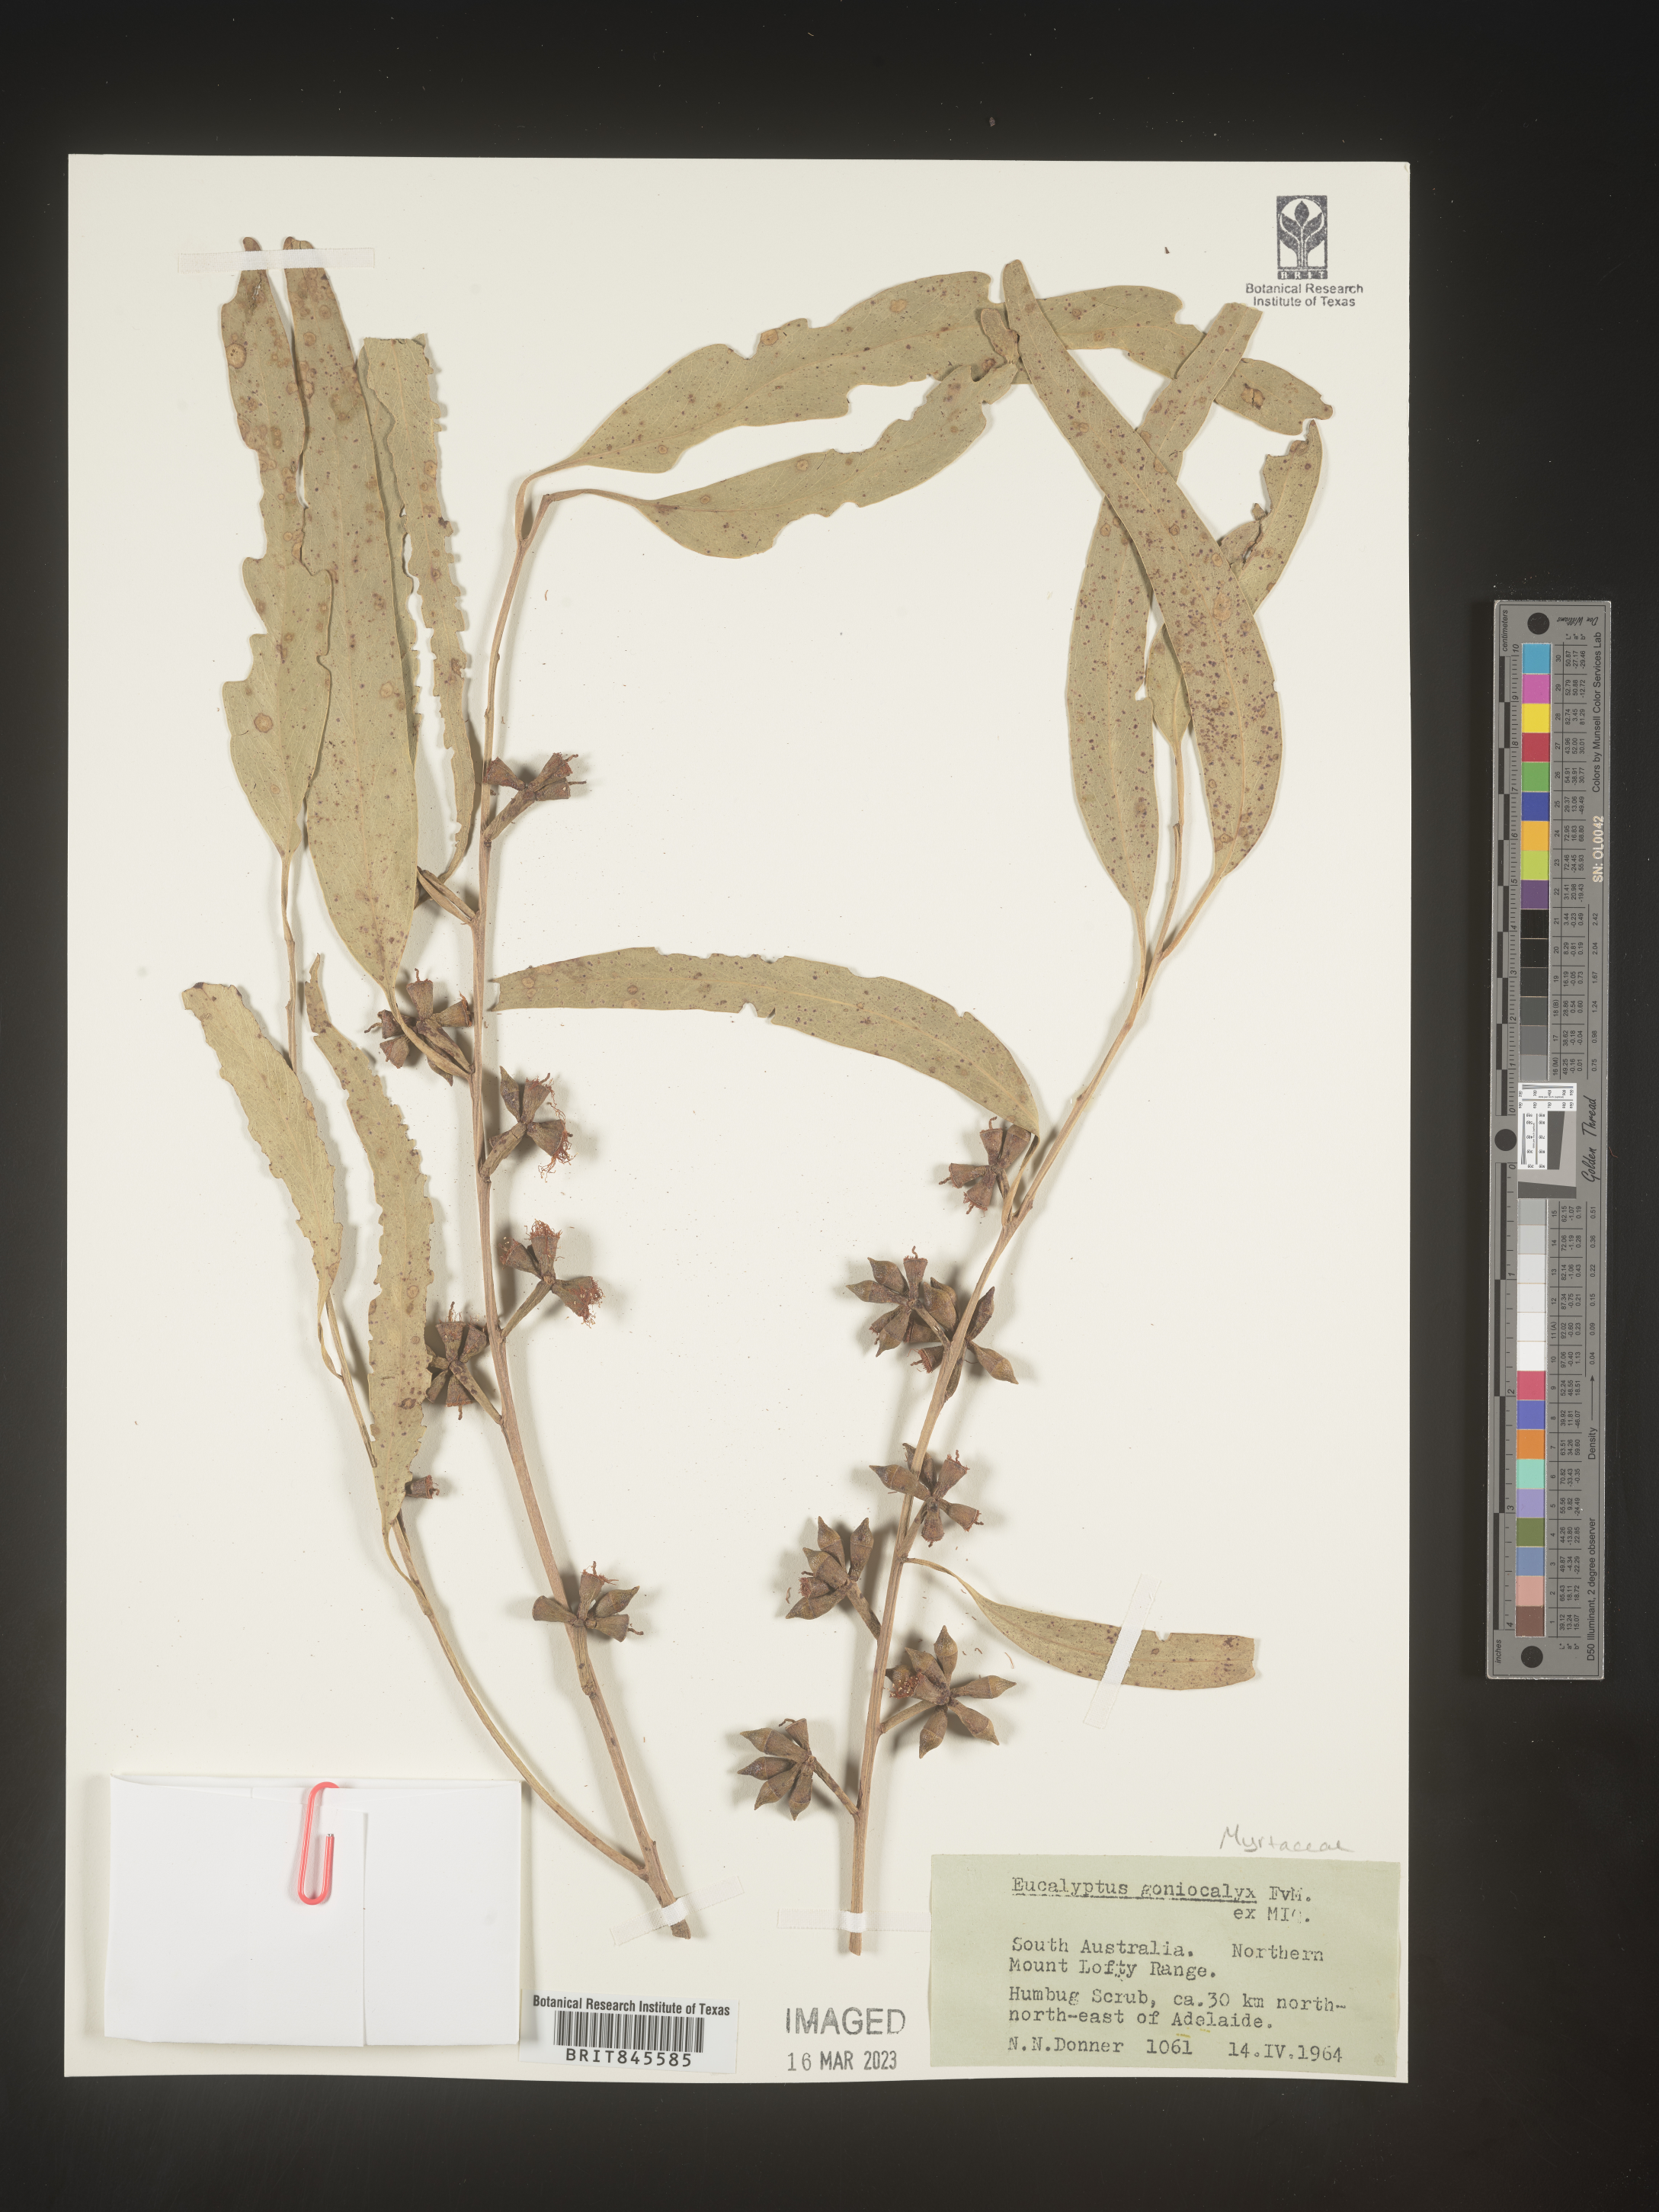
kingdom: Plantae
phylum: Tracheophyta
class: Magnoliopsida
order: Myrtales
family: Myrtaceae
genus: Eucalyptus
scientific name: Eucalyptus
